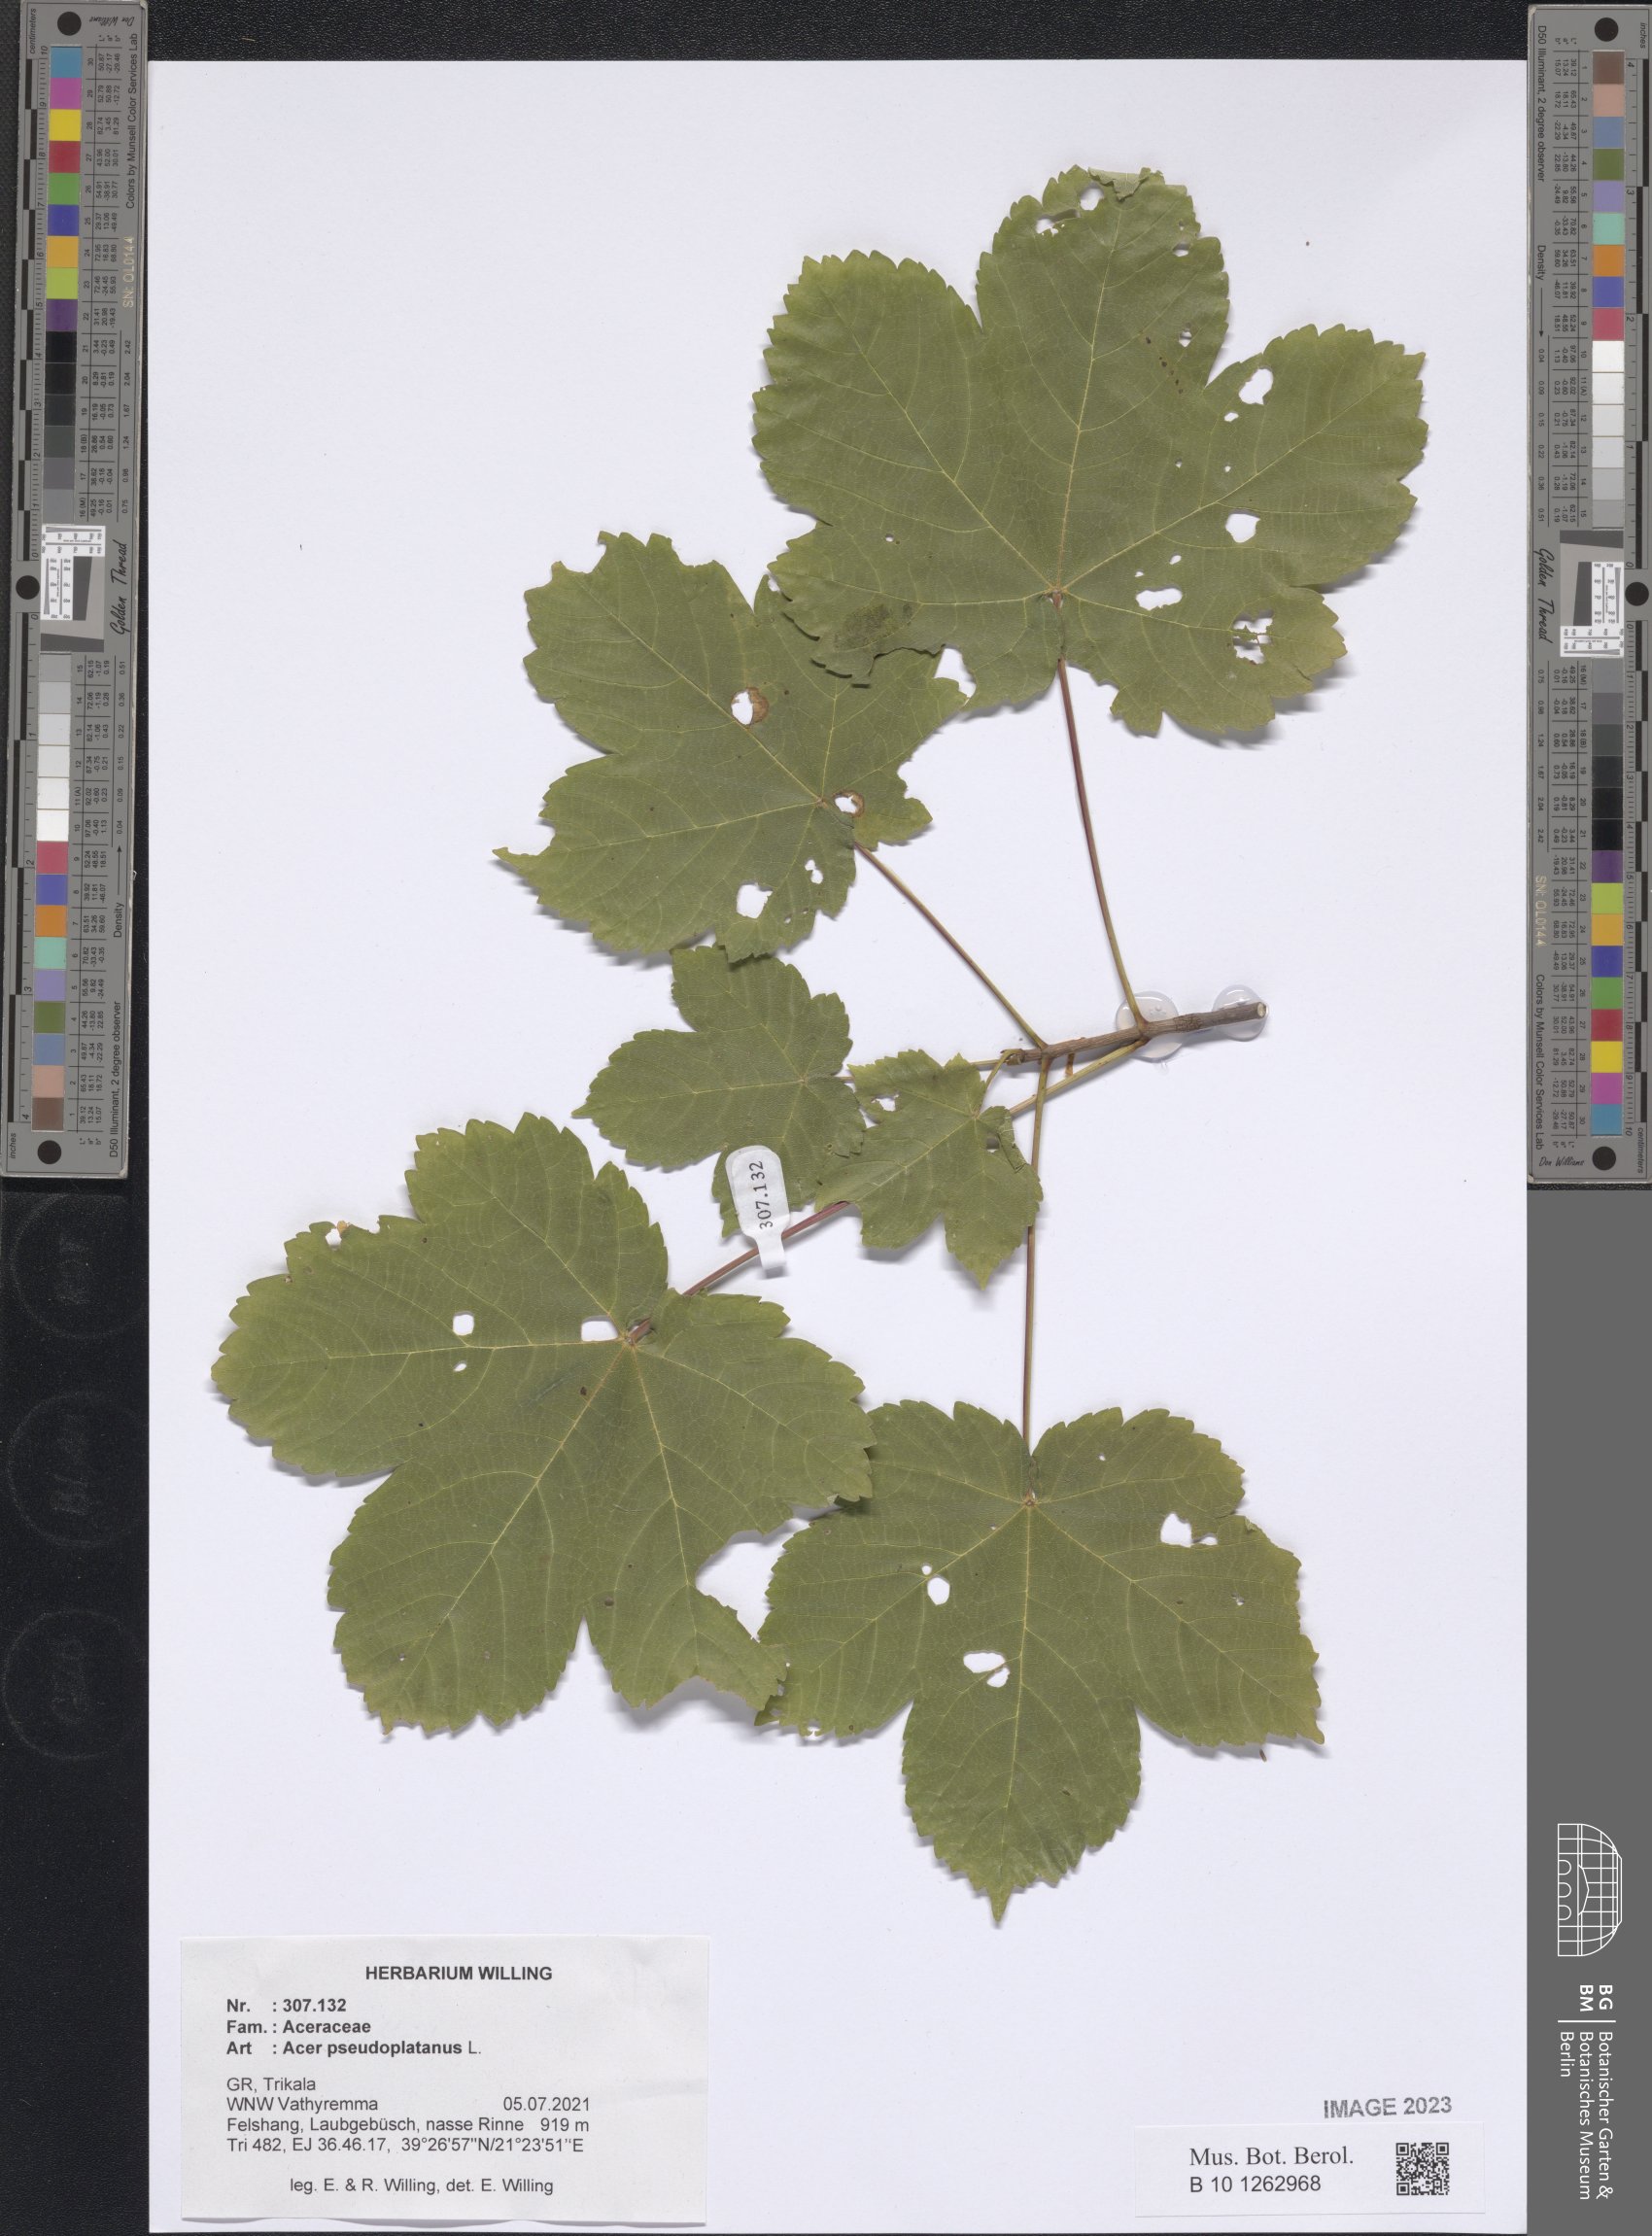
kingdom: Plantae
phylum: Tracheophyta
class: Magnoliopsida
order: Sapindales
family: Sapindaceae
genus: Acer
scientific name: Acer pseudoplatanus
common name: Sycamore
